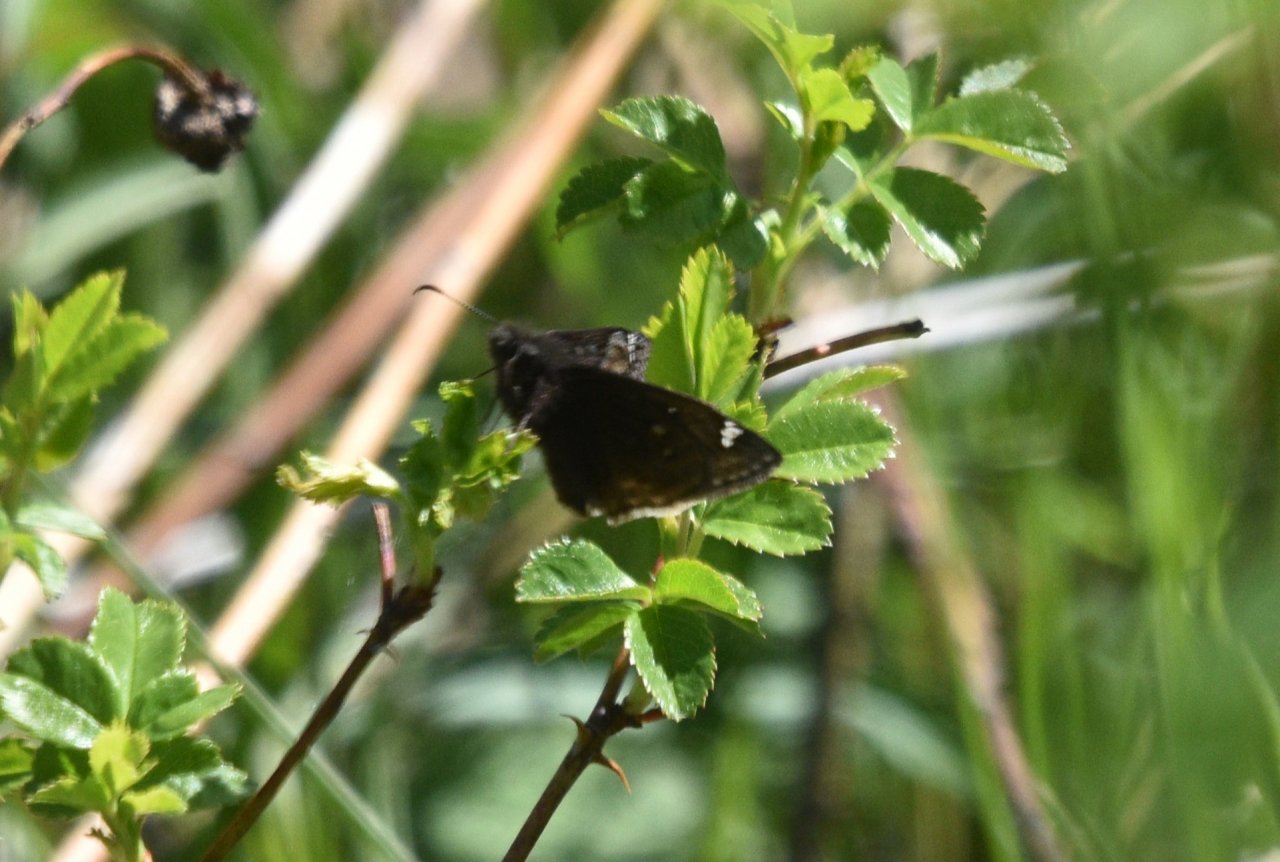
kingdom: Animalia
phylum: Arthropoda
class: Insecta
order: Lepidoptera
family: Hesperiidae
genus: Gesta
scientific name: Gesta
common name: Juvenal's Duskywing
